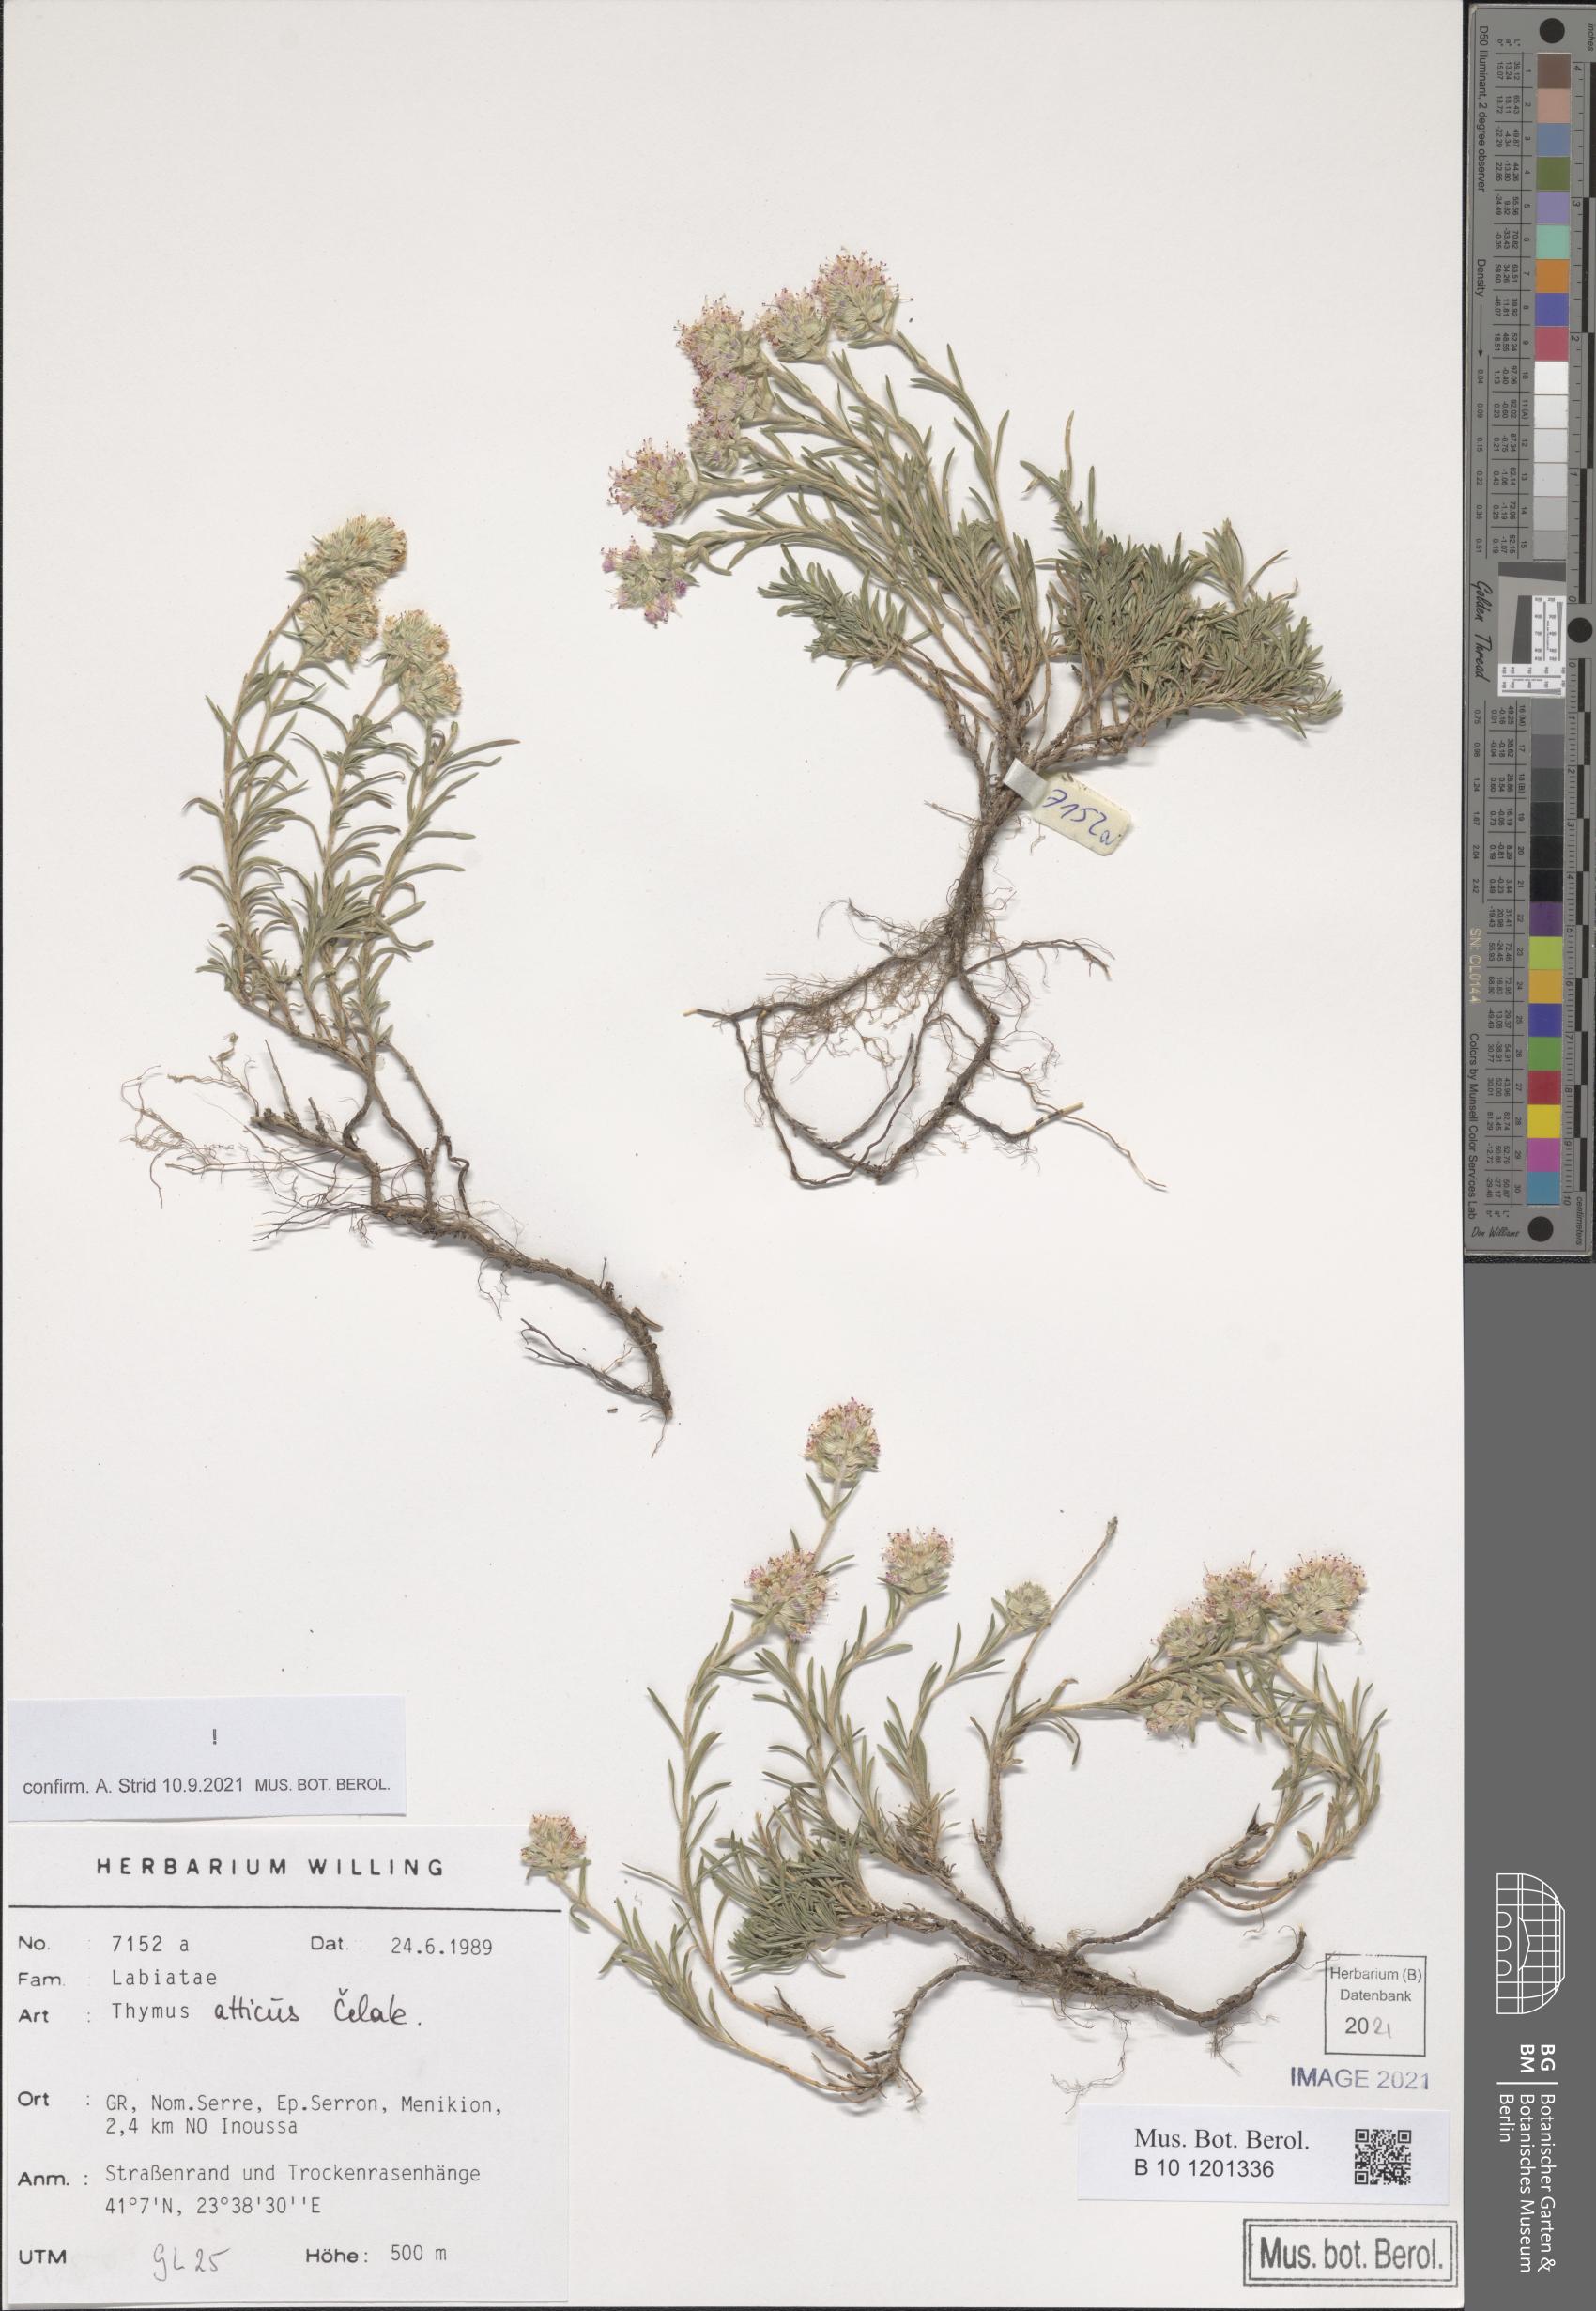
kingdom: Plantae
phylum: Tracheophyta
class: Magnoliopsida
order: Lamiales
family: Lamiaceae
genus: Thymus
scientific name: Thymus atticus
